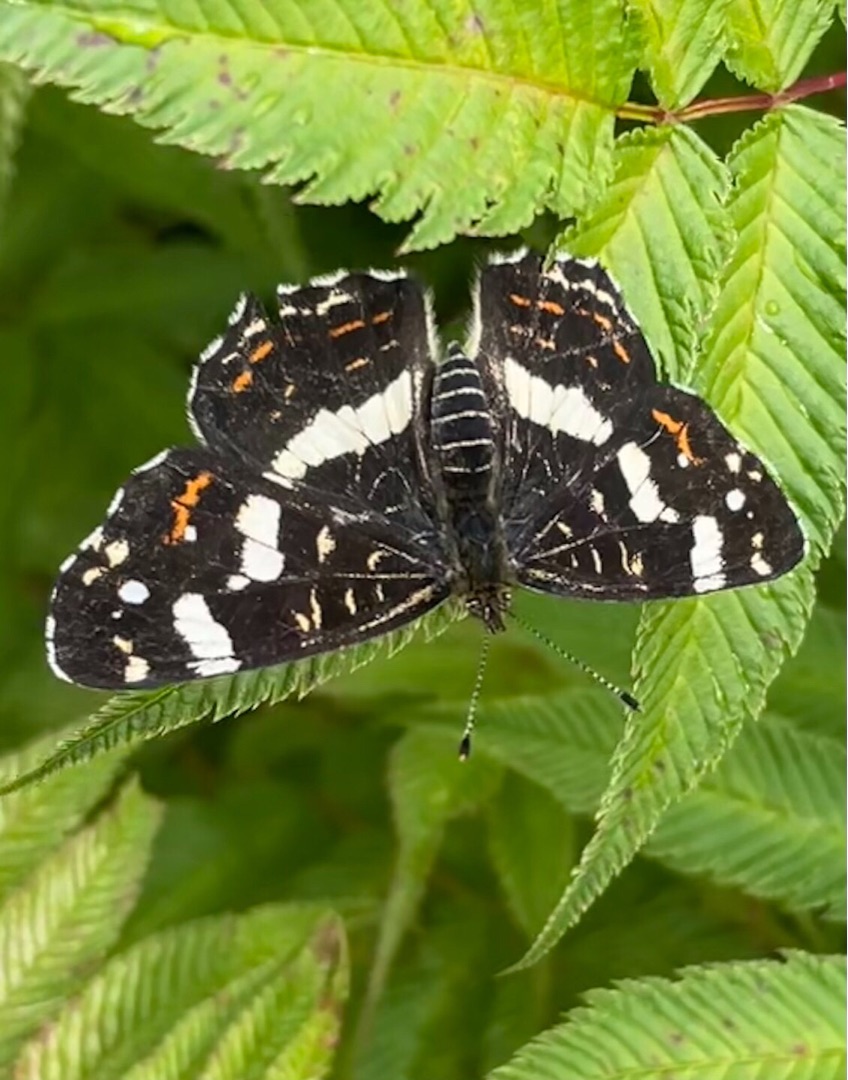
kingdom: Animalia
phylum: Arthropoda
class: Insecta
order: Lepidoptera
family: Nymphalidae
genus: Araschnia
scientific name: Araschnia levana
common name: Nældesommerfugl
